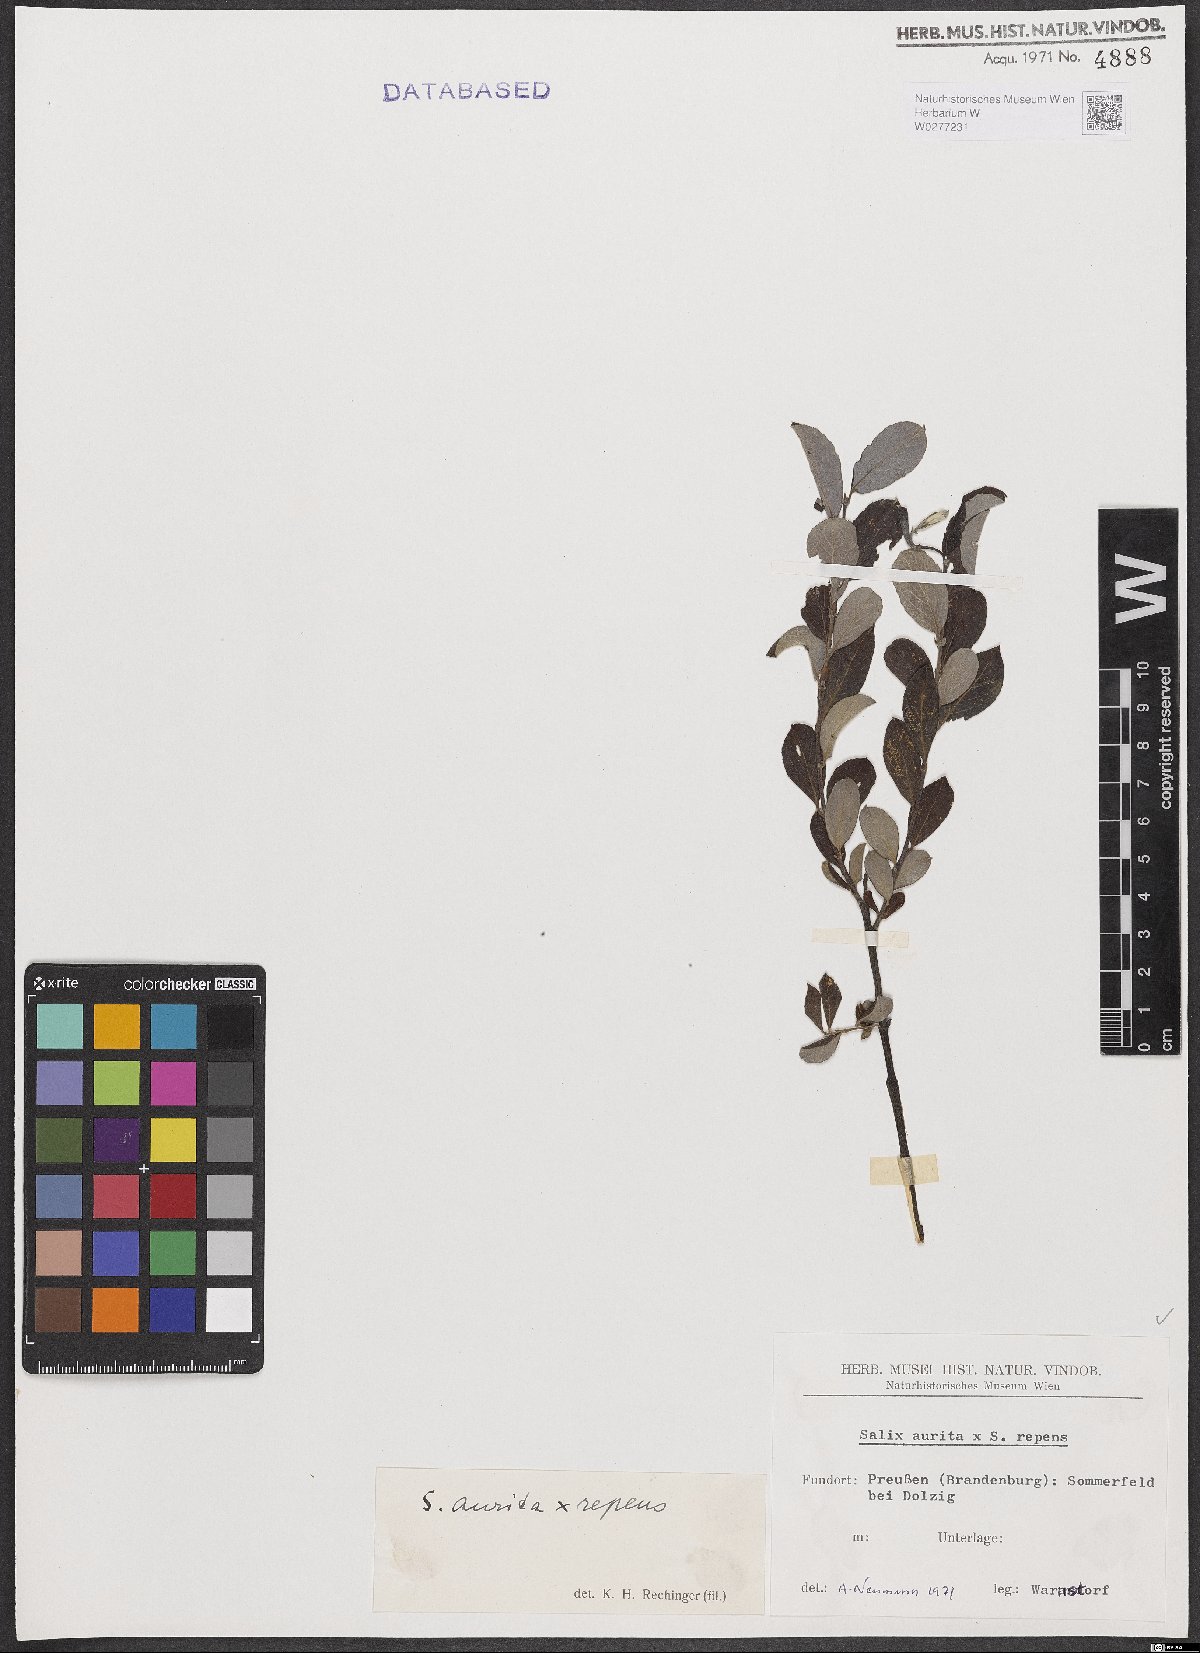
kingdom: Plantae
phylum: Tracheophyta
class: Magnoliopsida
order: Malpighiales
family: Salicaceae
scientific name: Salicaceae
